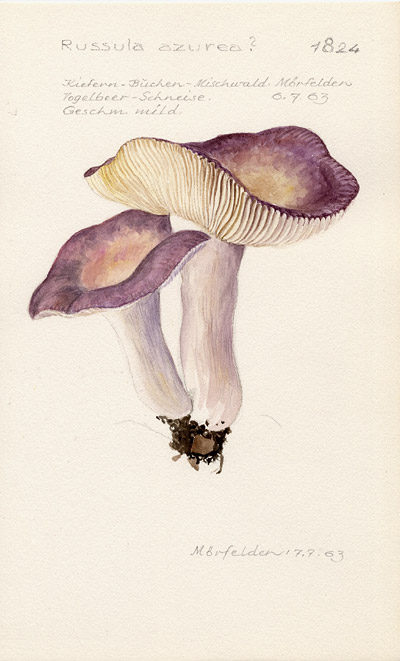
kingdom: Fungi
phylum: Basidiomycota
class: Agaricomycetes
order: Russulales
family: Russulaceae
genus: Russula
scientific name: Russula azurea
